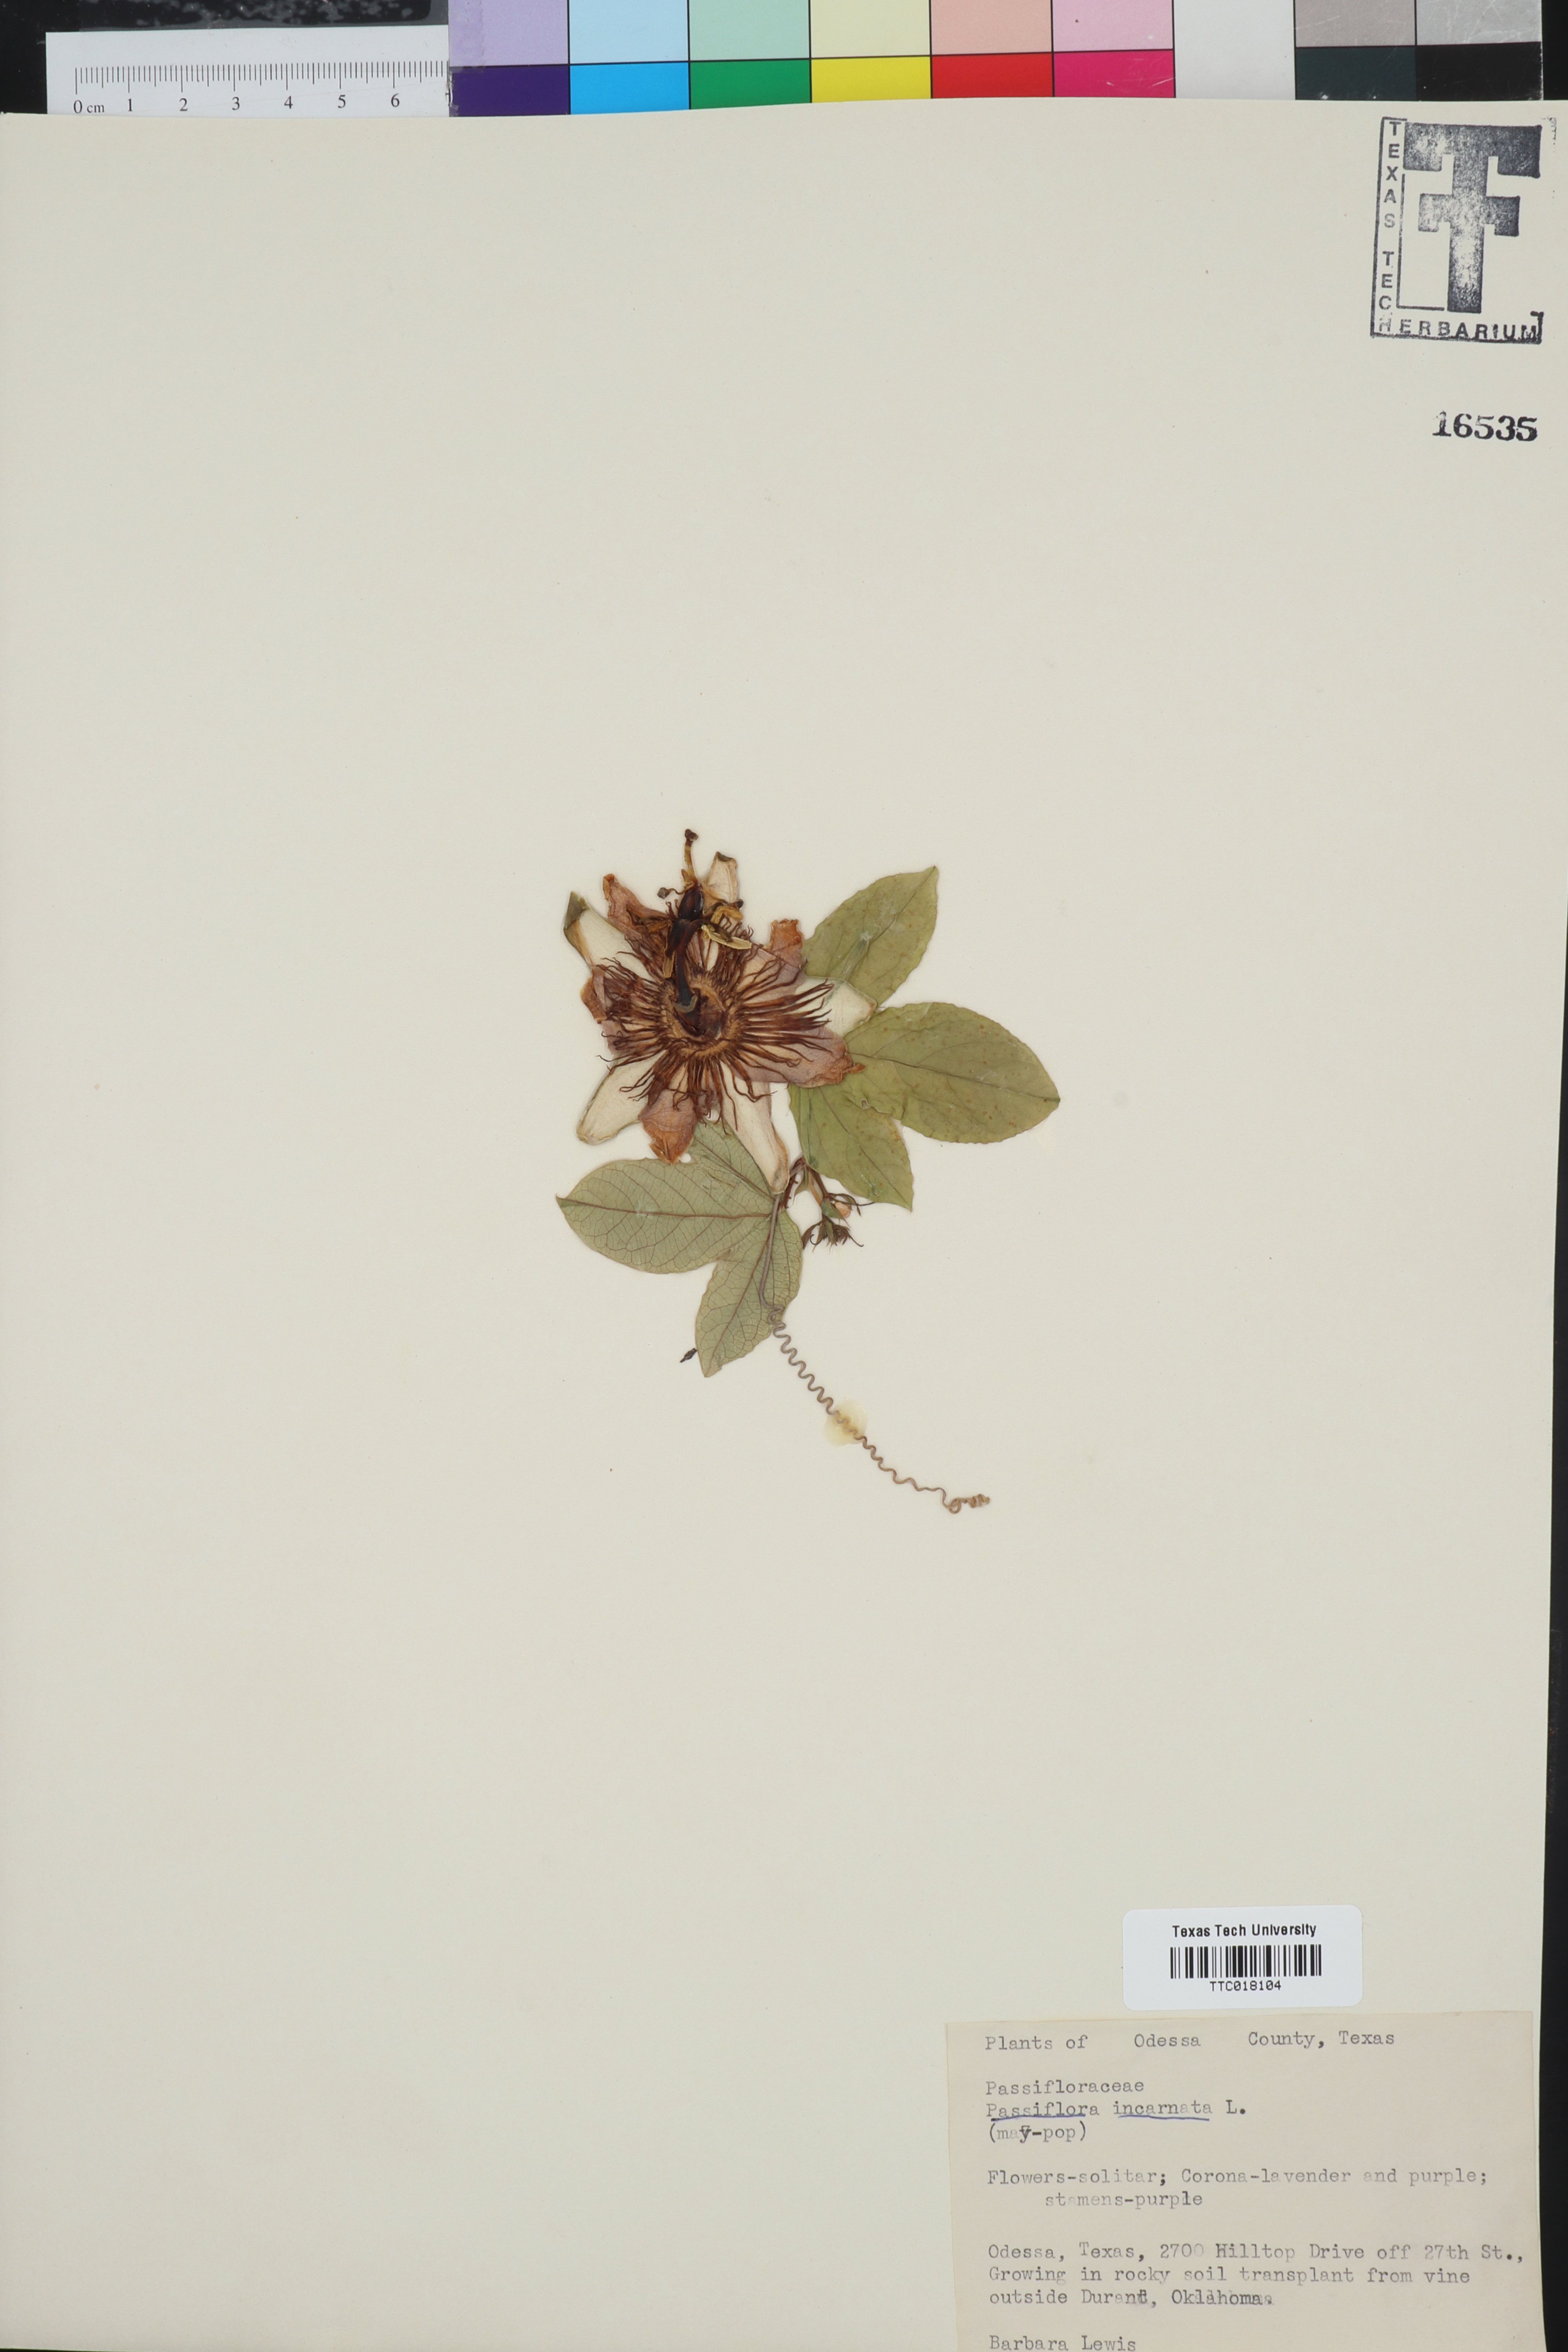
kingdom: Plantae
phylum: Tracheophyta
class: Magnoliopsida
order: Malpighiales
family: Passifloraceae
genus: Passiflora
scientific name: Passiflora incarnata
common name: Apricot-vine
